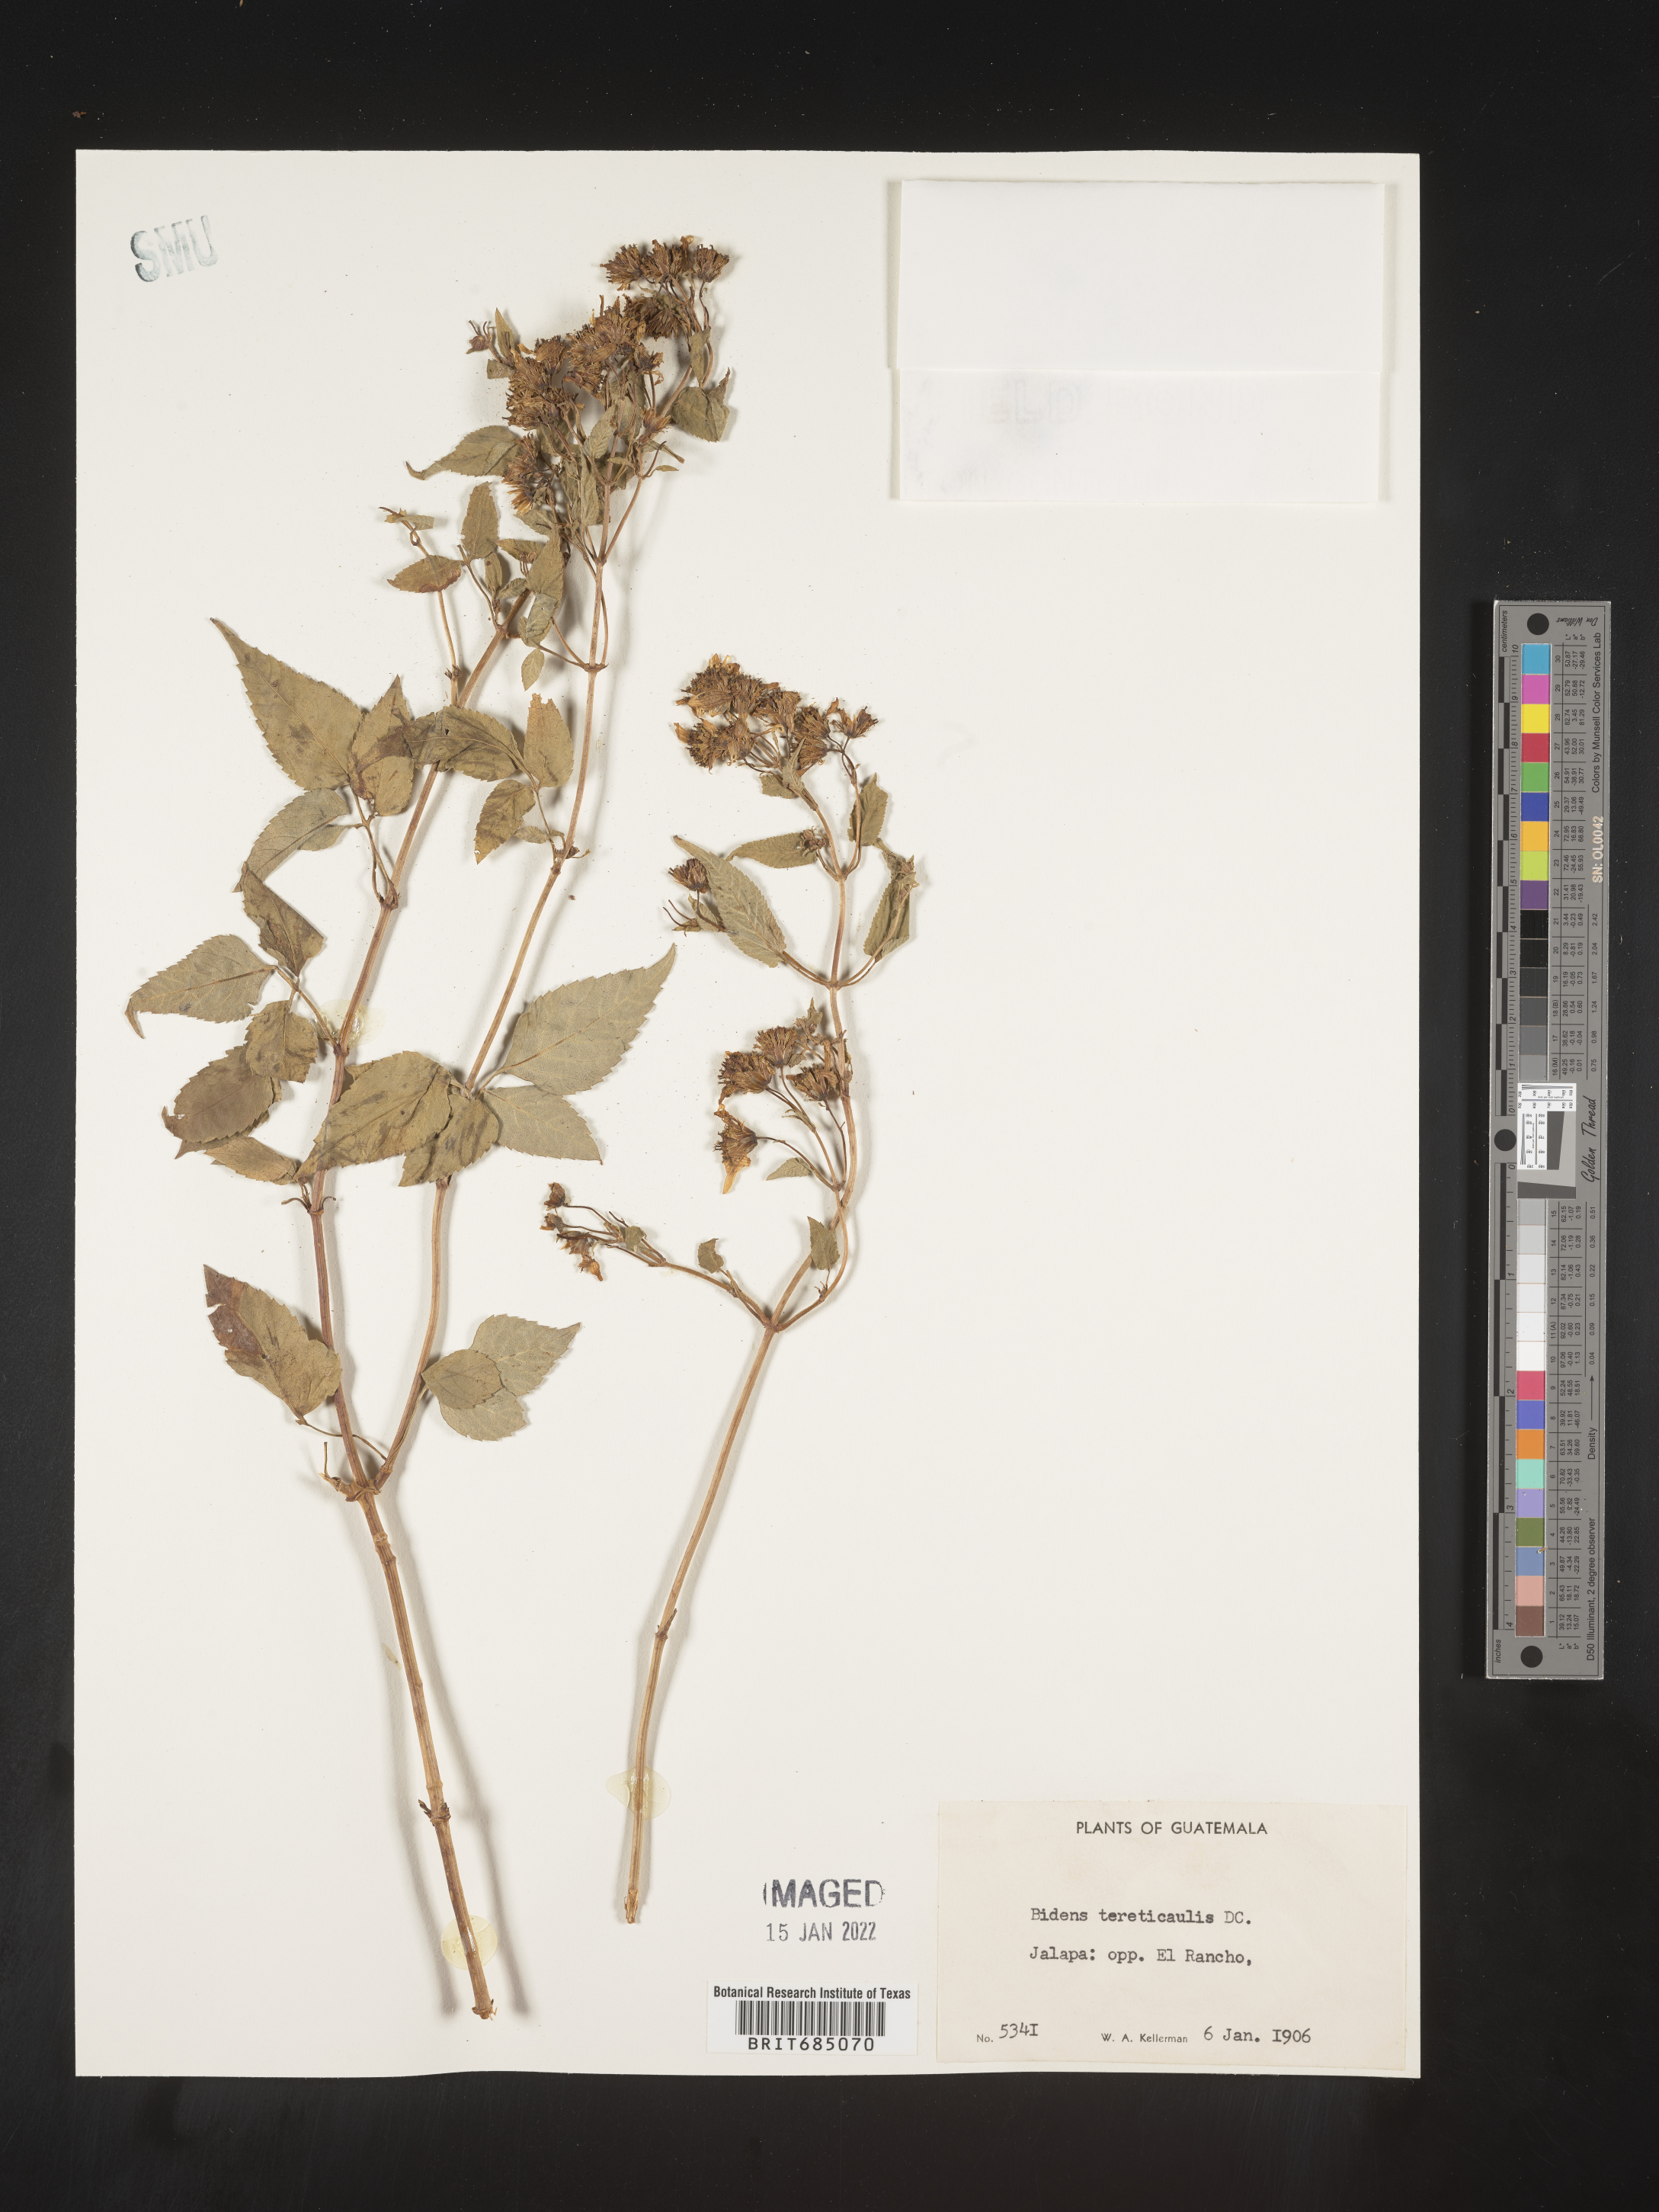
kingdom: Plantae
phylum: Tracheophyta
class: Magnoliopsida
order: Asterales
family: Asteraceae
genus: Bidens
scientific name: Bidens
